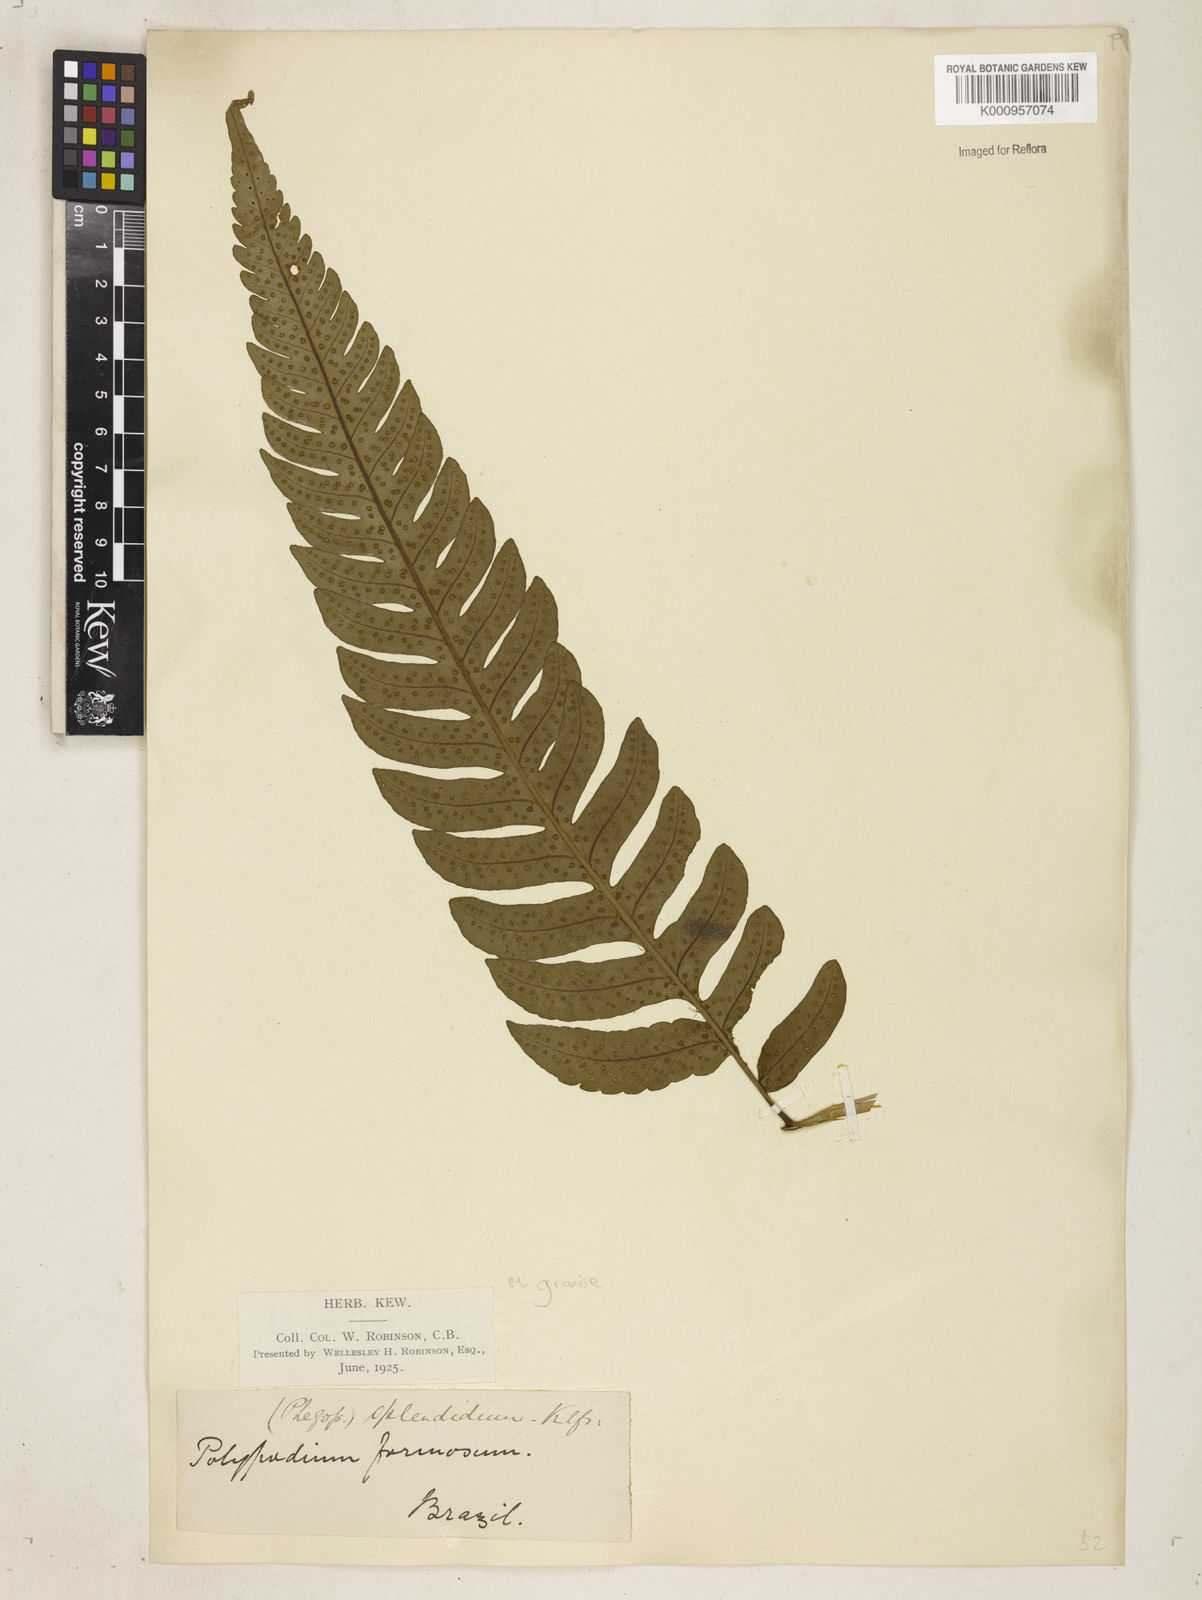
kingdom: Plantae
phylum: Tracheophyta
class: Polypodiopsida
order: Polypodiales
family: Dryopteridaceae
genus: Megalastrum
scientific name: Megalastrum grande
